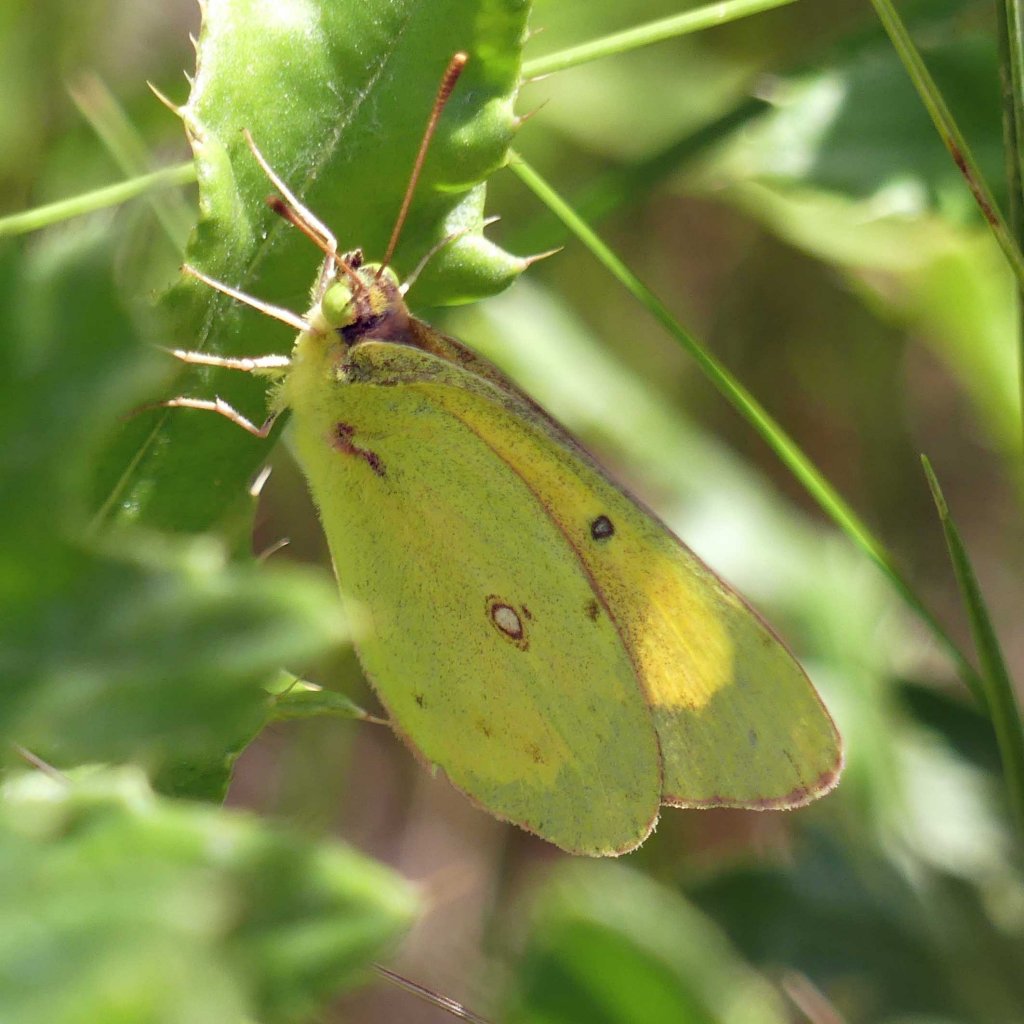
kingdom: Animalia
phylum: Arthropoda
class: Insecta
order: Lepidoptera
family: Pieridae
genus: Colias
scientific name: Colias eurytheme
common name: Orange Sulphur
